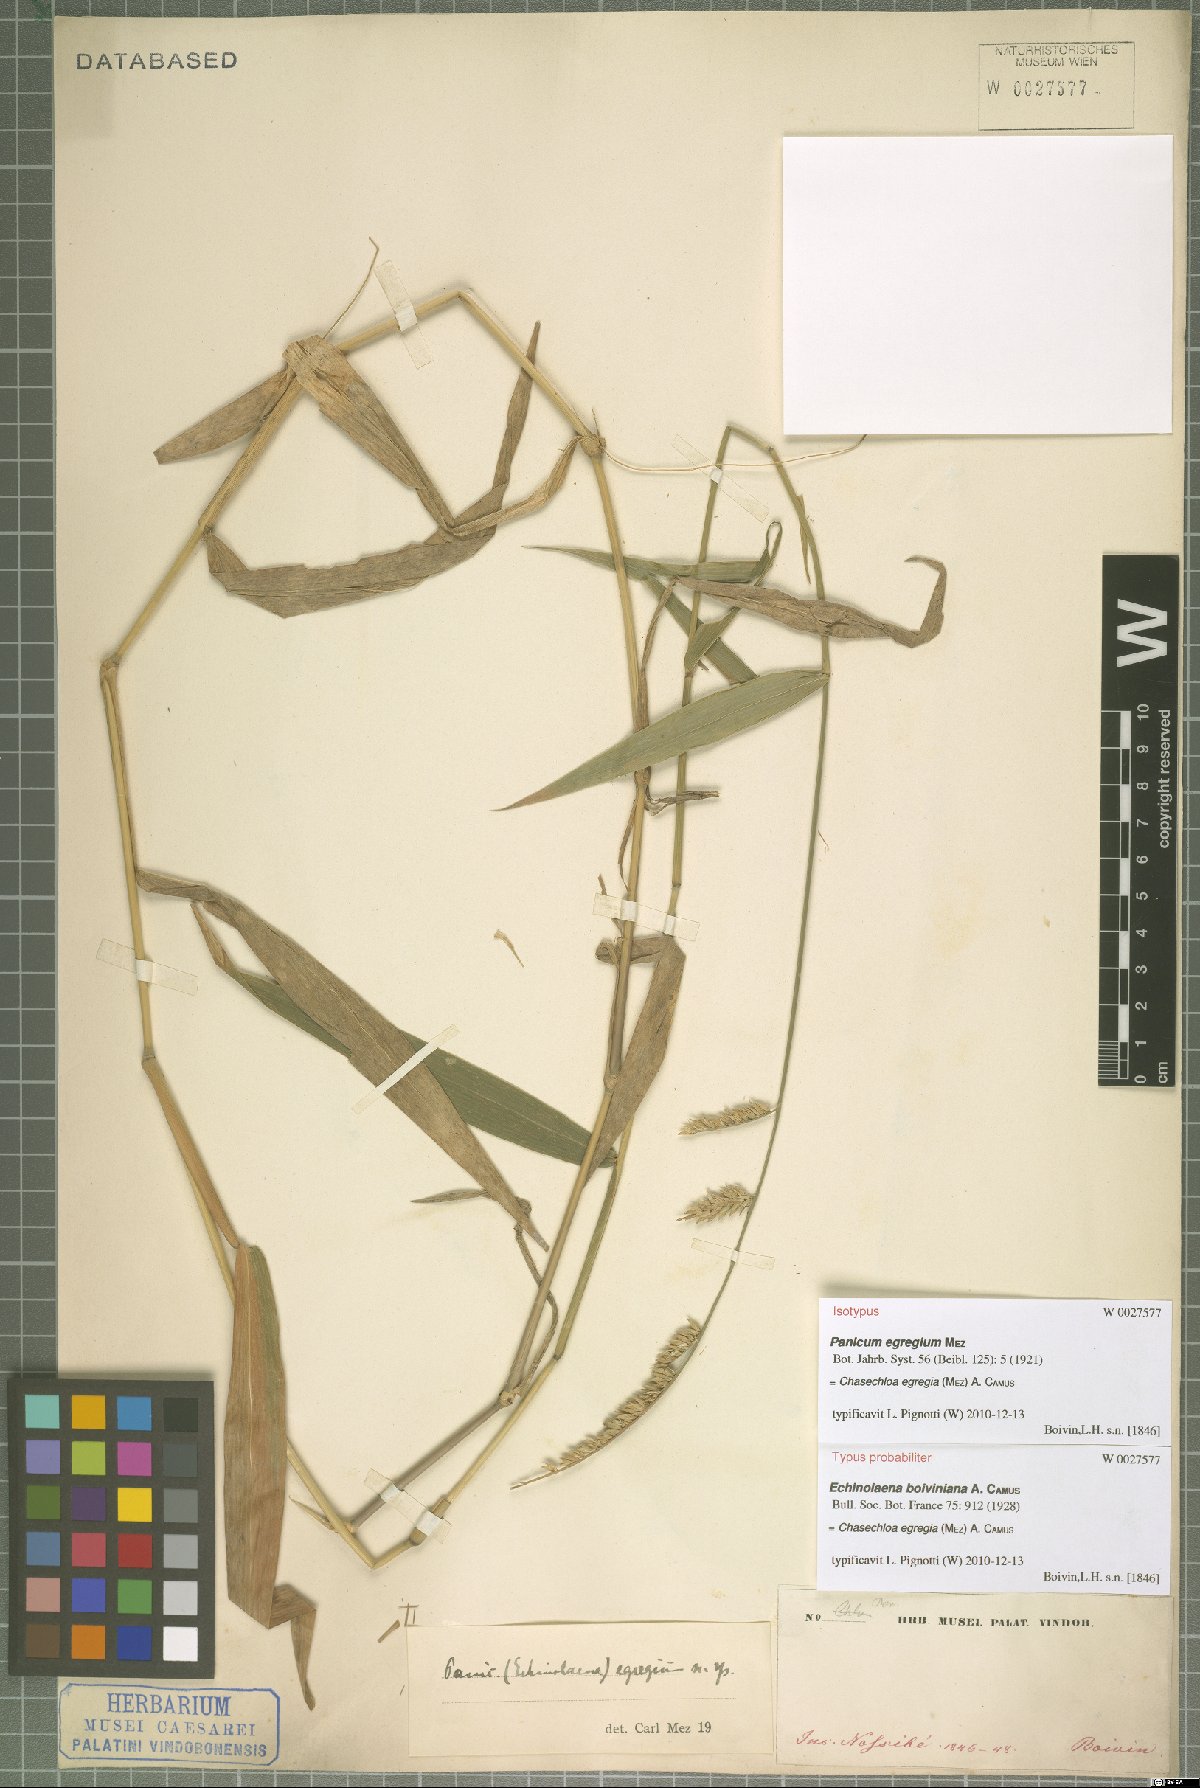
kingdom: Plantae
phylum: Tracheophyta
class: Liliopsida
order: Poales
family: Poaceae
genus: Chasechloa
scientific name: Chasechloa egregia
